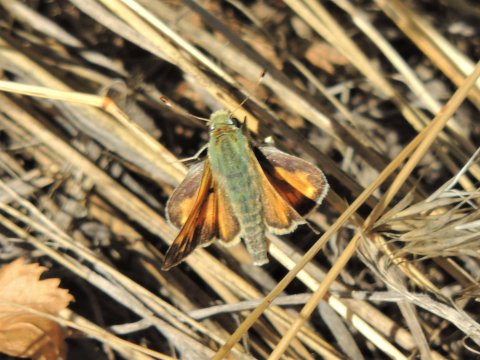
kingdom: Animalia
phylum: Arthropoda
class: Insecta
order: Lepidoptera
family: Hesperiidae
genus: Ochlodes
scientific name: Ochlodes sylvanoides
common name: Woodland Skipper
